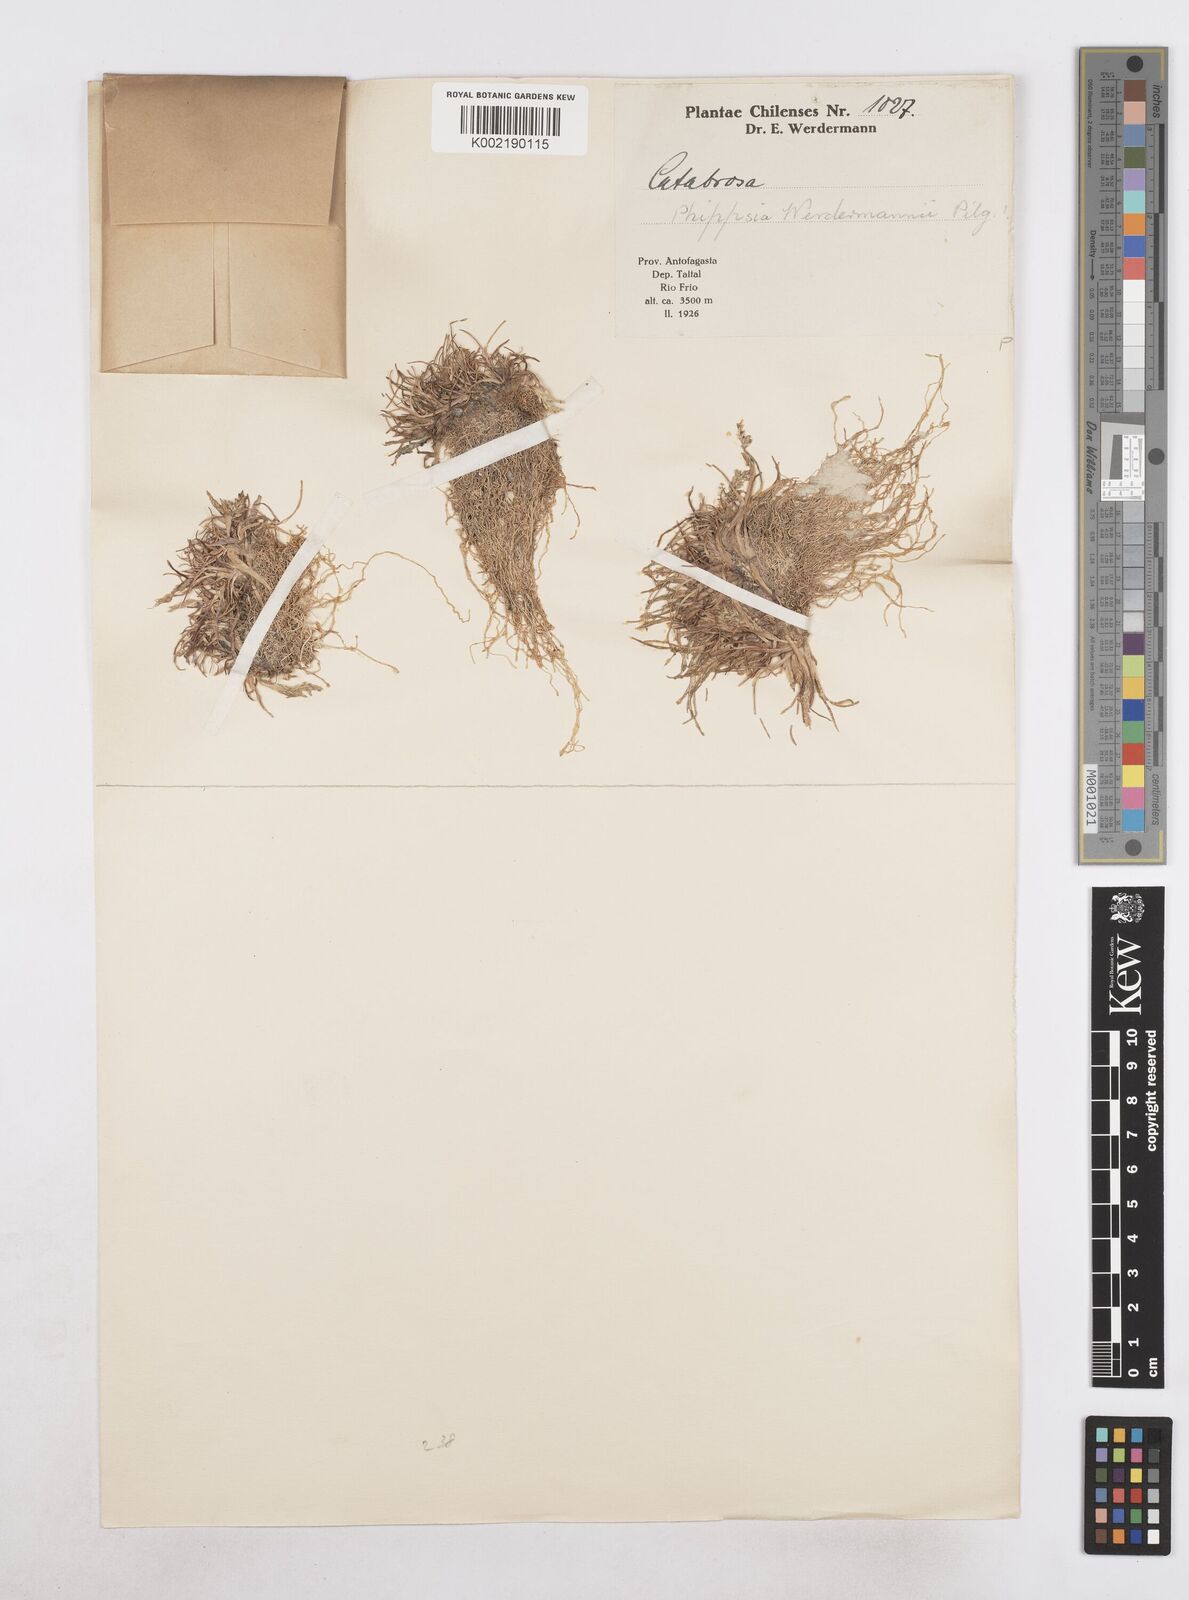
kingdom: Plantae
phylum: Tracheophyta
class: Liliopsida
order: Poales
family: Poaceae
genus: Catabrosa
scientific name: Catabrosa werdermannii
